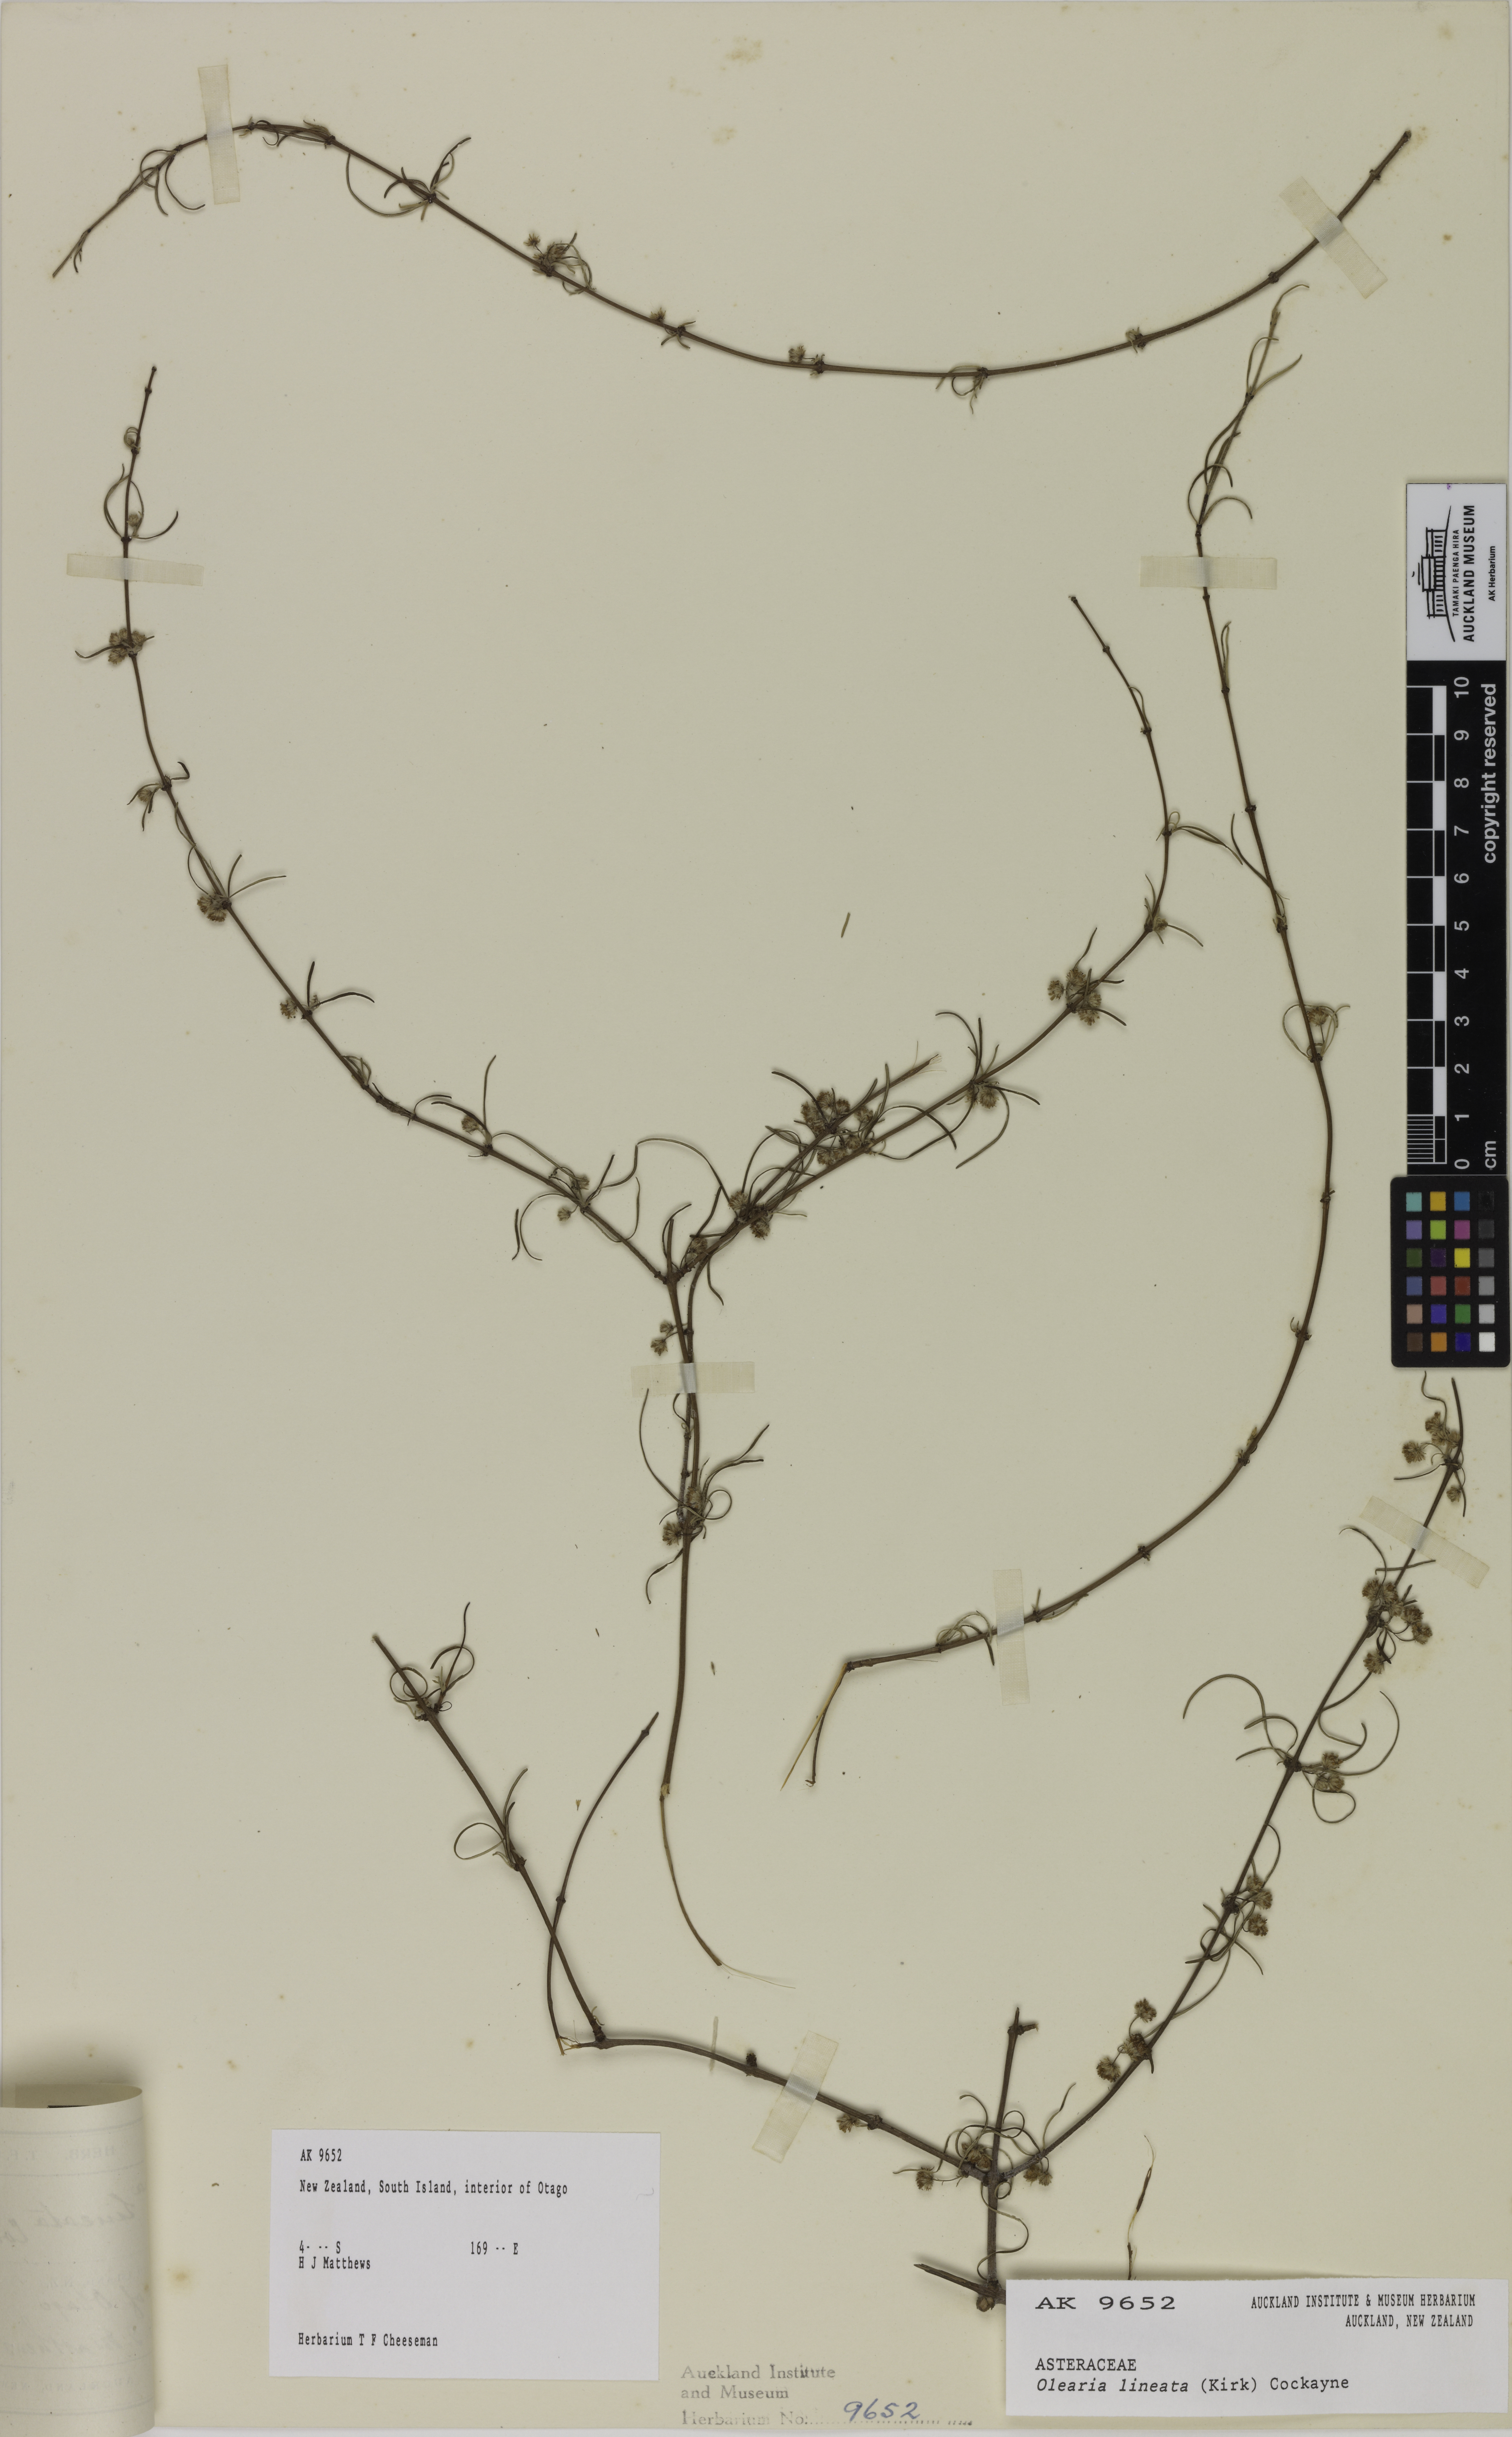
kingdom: Plantae
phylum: Tracheophyta
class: Magnoliopsida
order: Asterales
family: Asteraceae
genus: Olearia
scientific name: Olearia lineata
